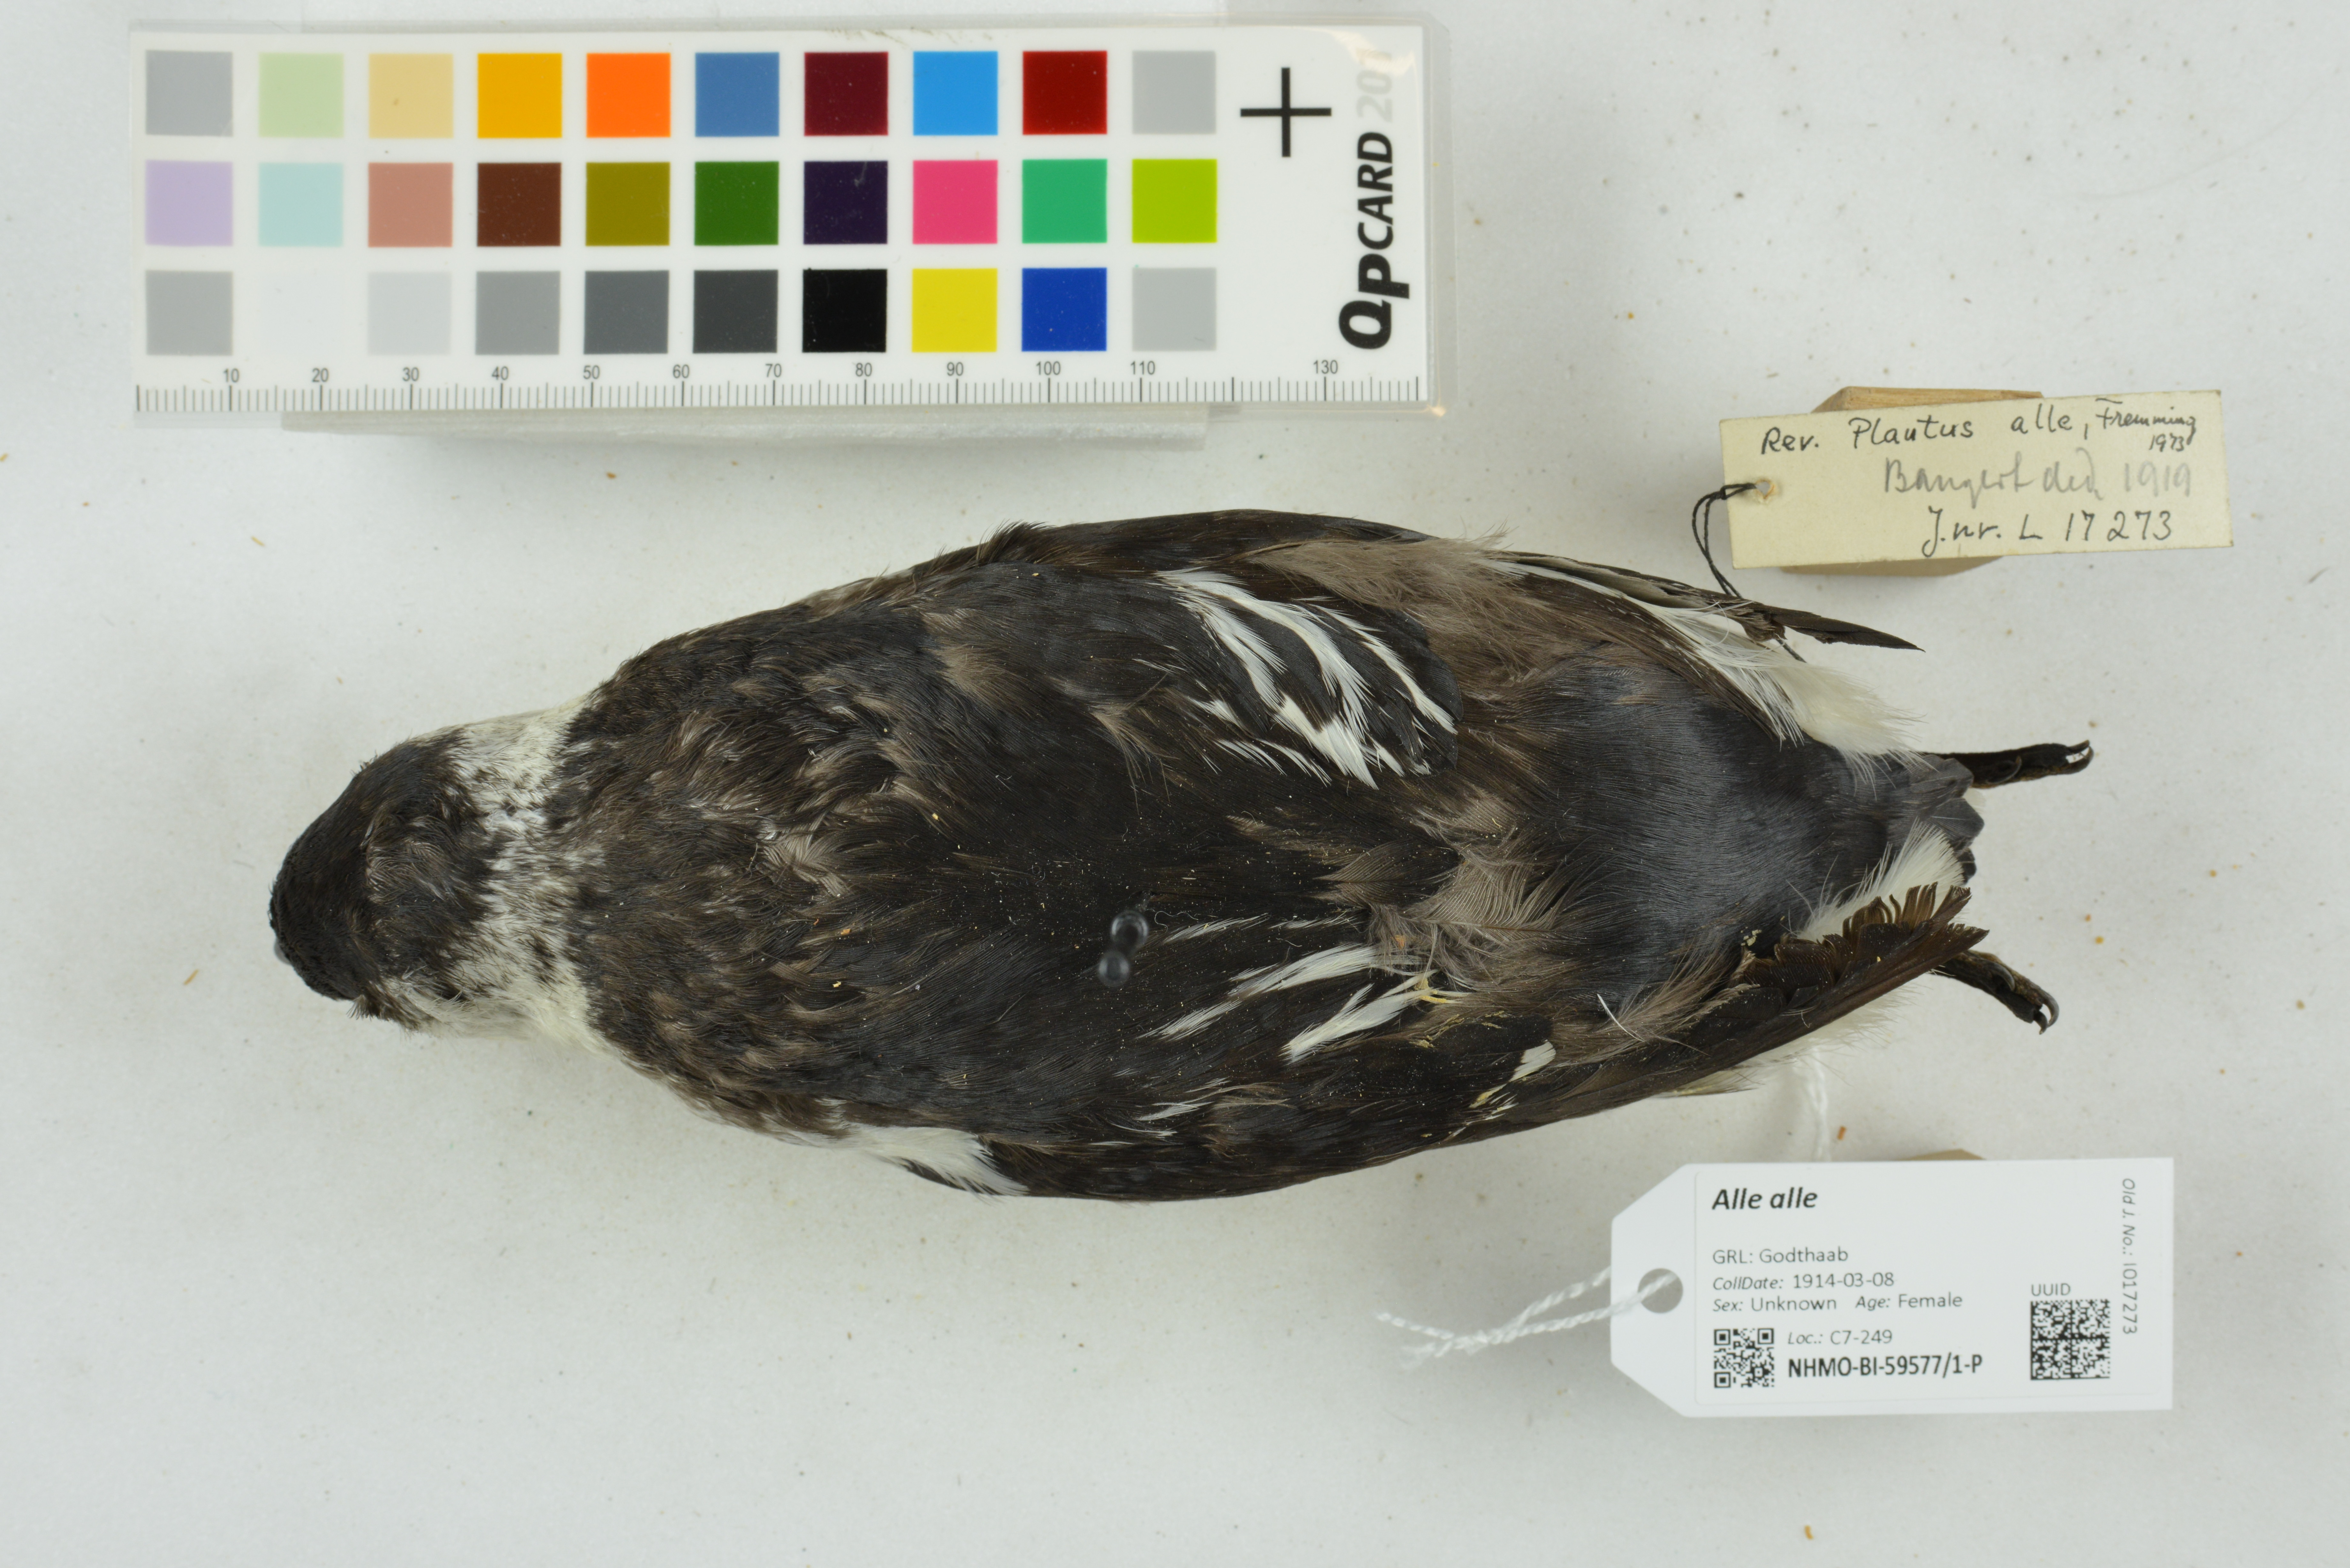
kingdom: Animalia
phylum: Chordata
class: Aves
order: Charadriiformes
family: Alcidae
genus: Alle
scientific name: Alle alle
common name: Little auk
